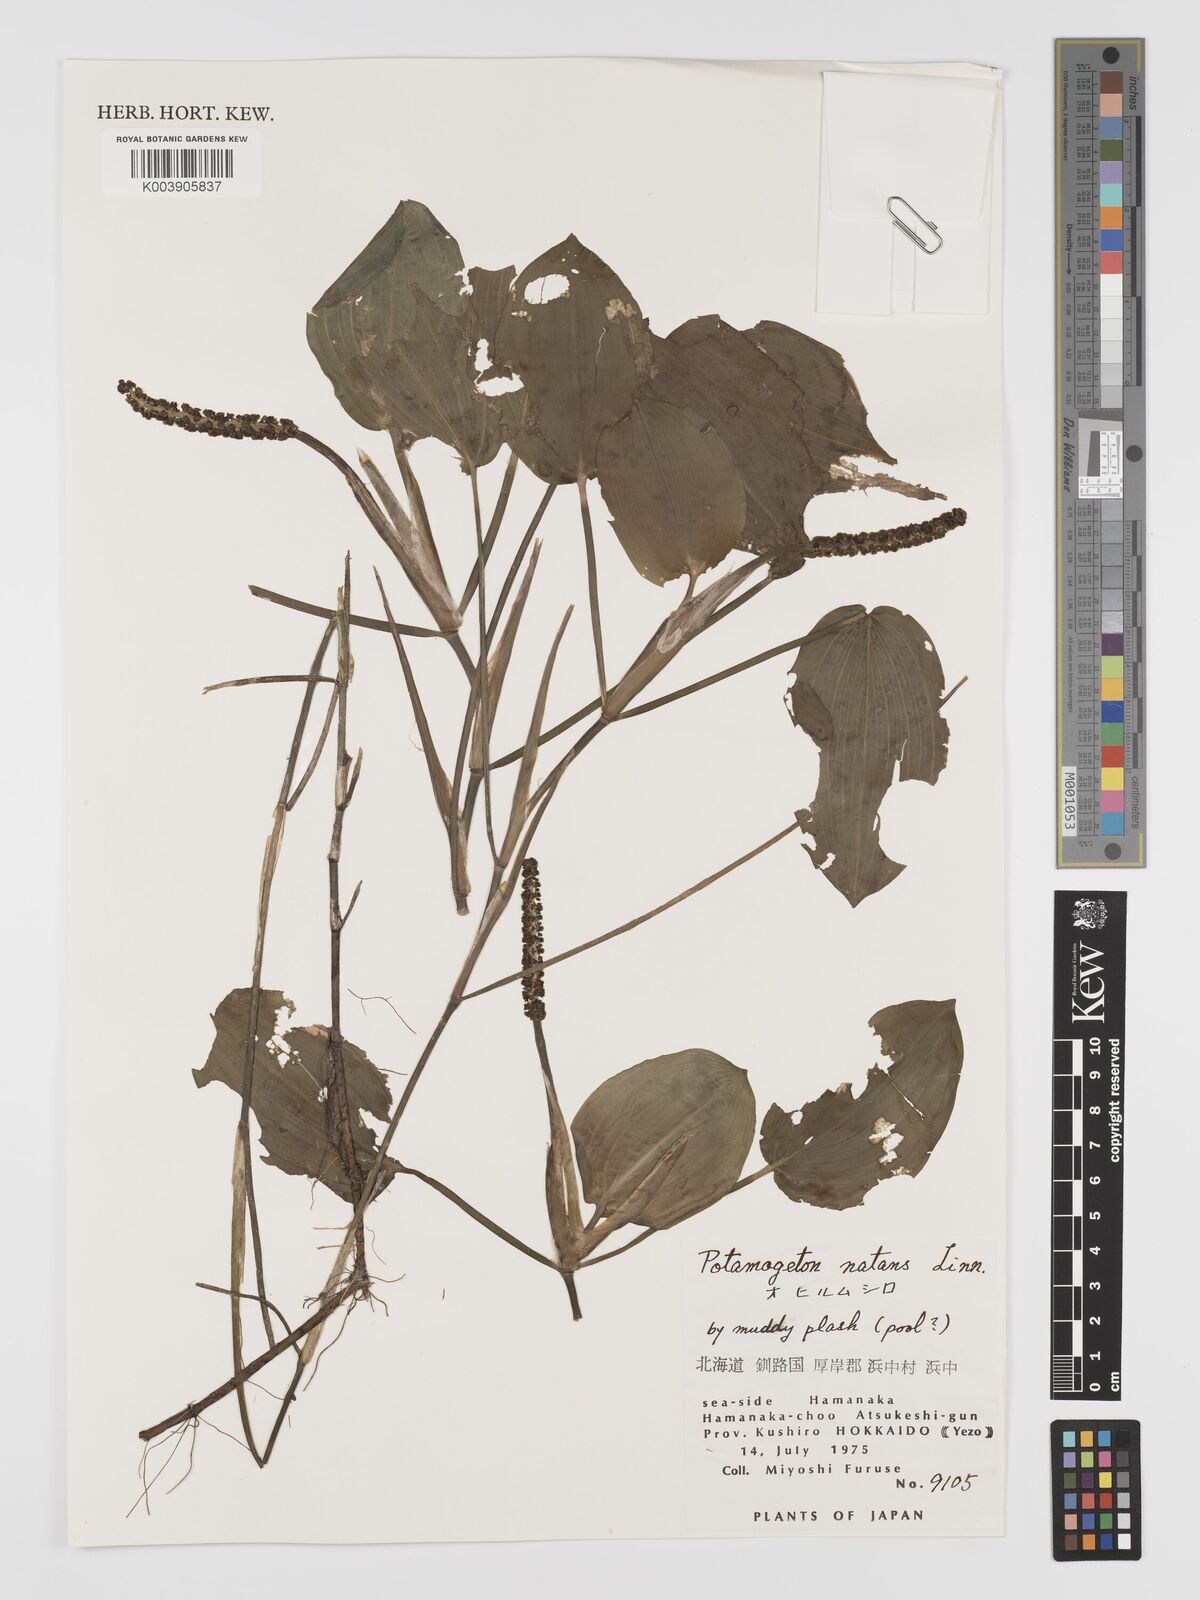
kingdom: Plantae
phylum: Tracheophyta
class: Liliopsida
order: Alismatales
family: Potamogetonaceae
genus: Potamogeton
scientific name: Potamogeton natans
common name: Broad-leaved pondweed
